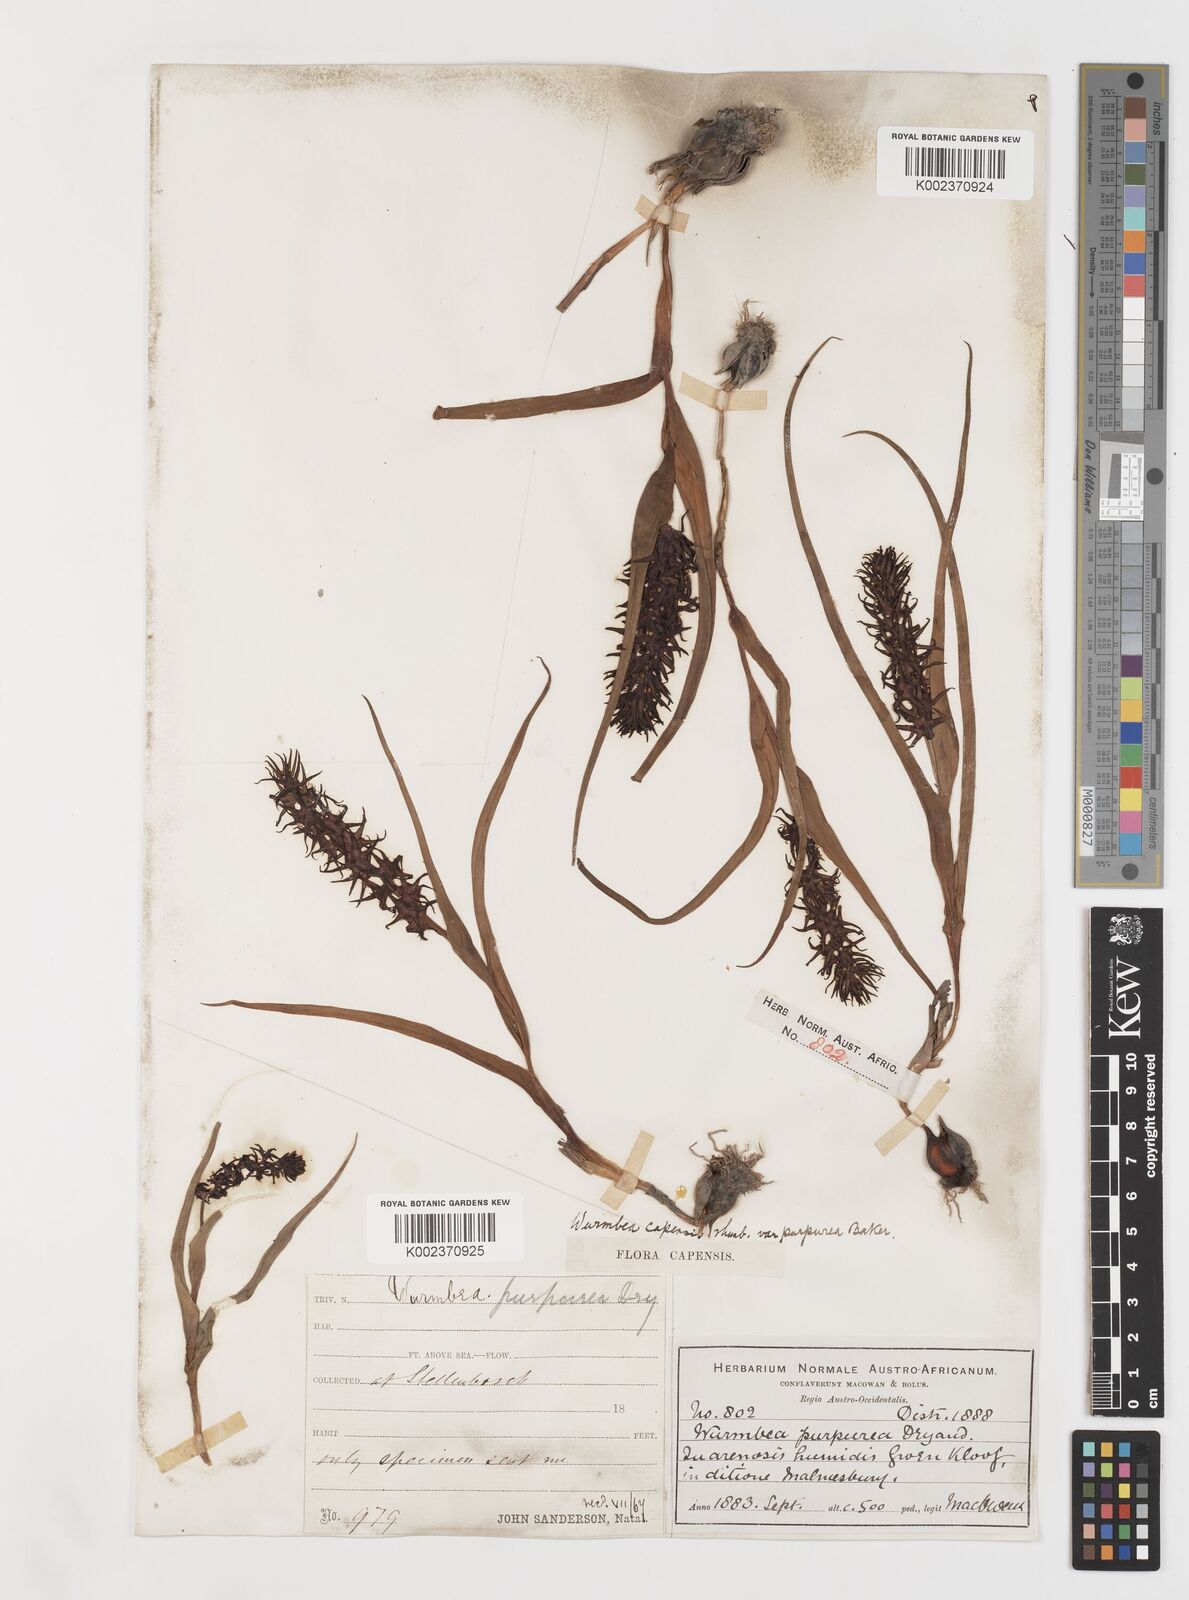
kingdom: Plantae
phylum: Tracheophyta
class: Liliopsida
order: Liliales
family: Colchicaceae
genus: Wurmbea
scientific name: Wurmbea marginata
